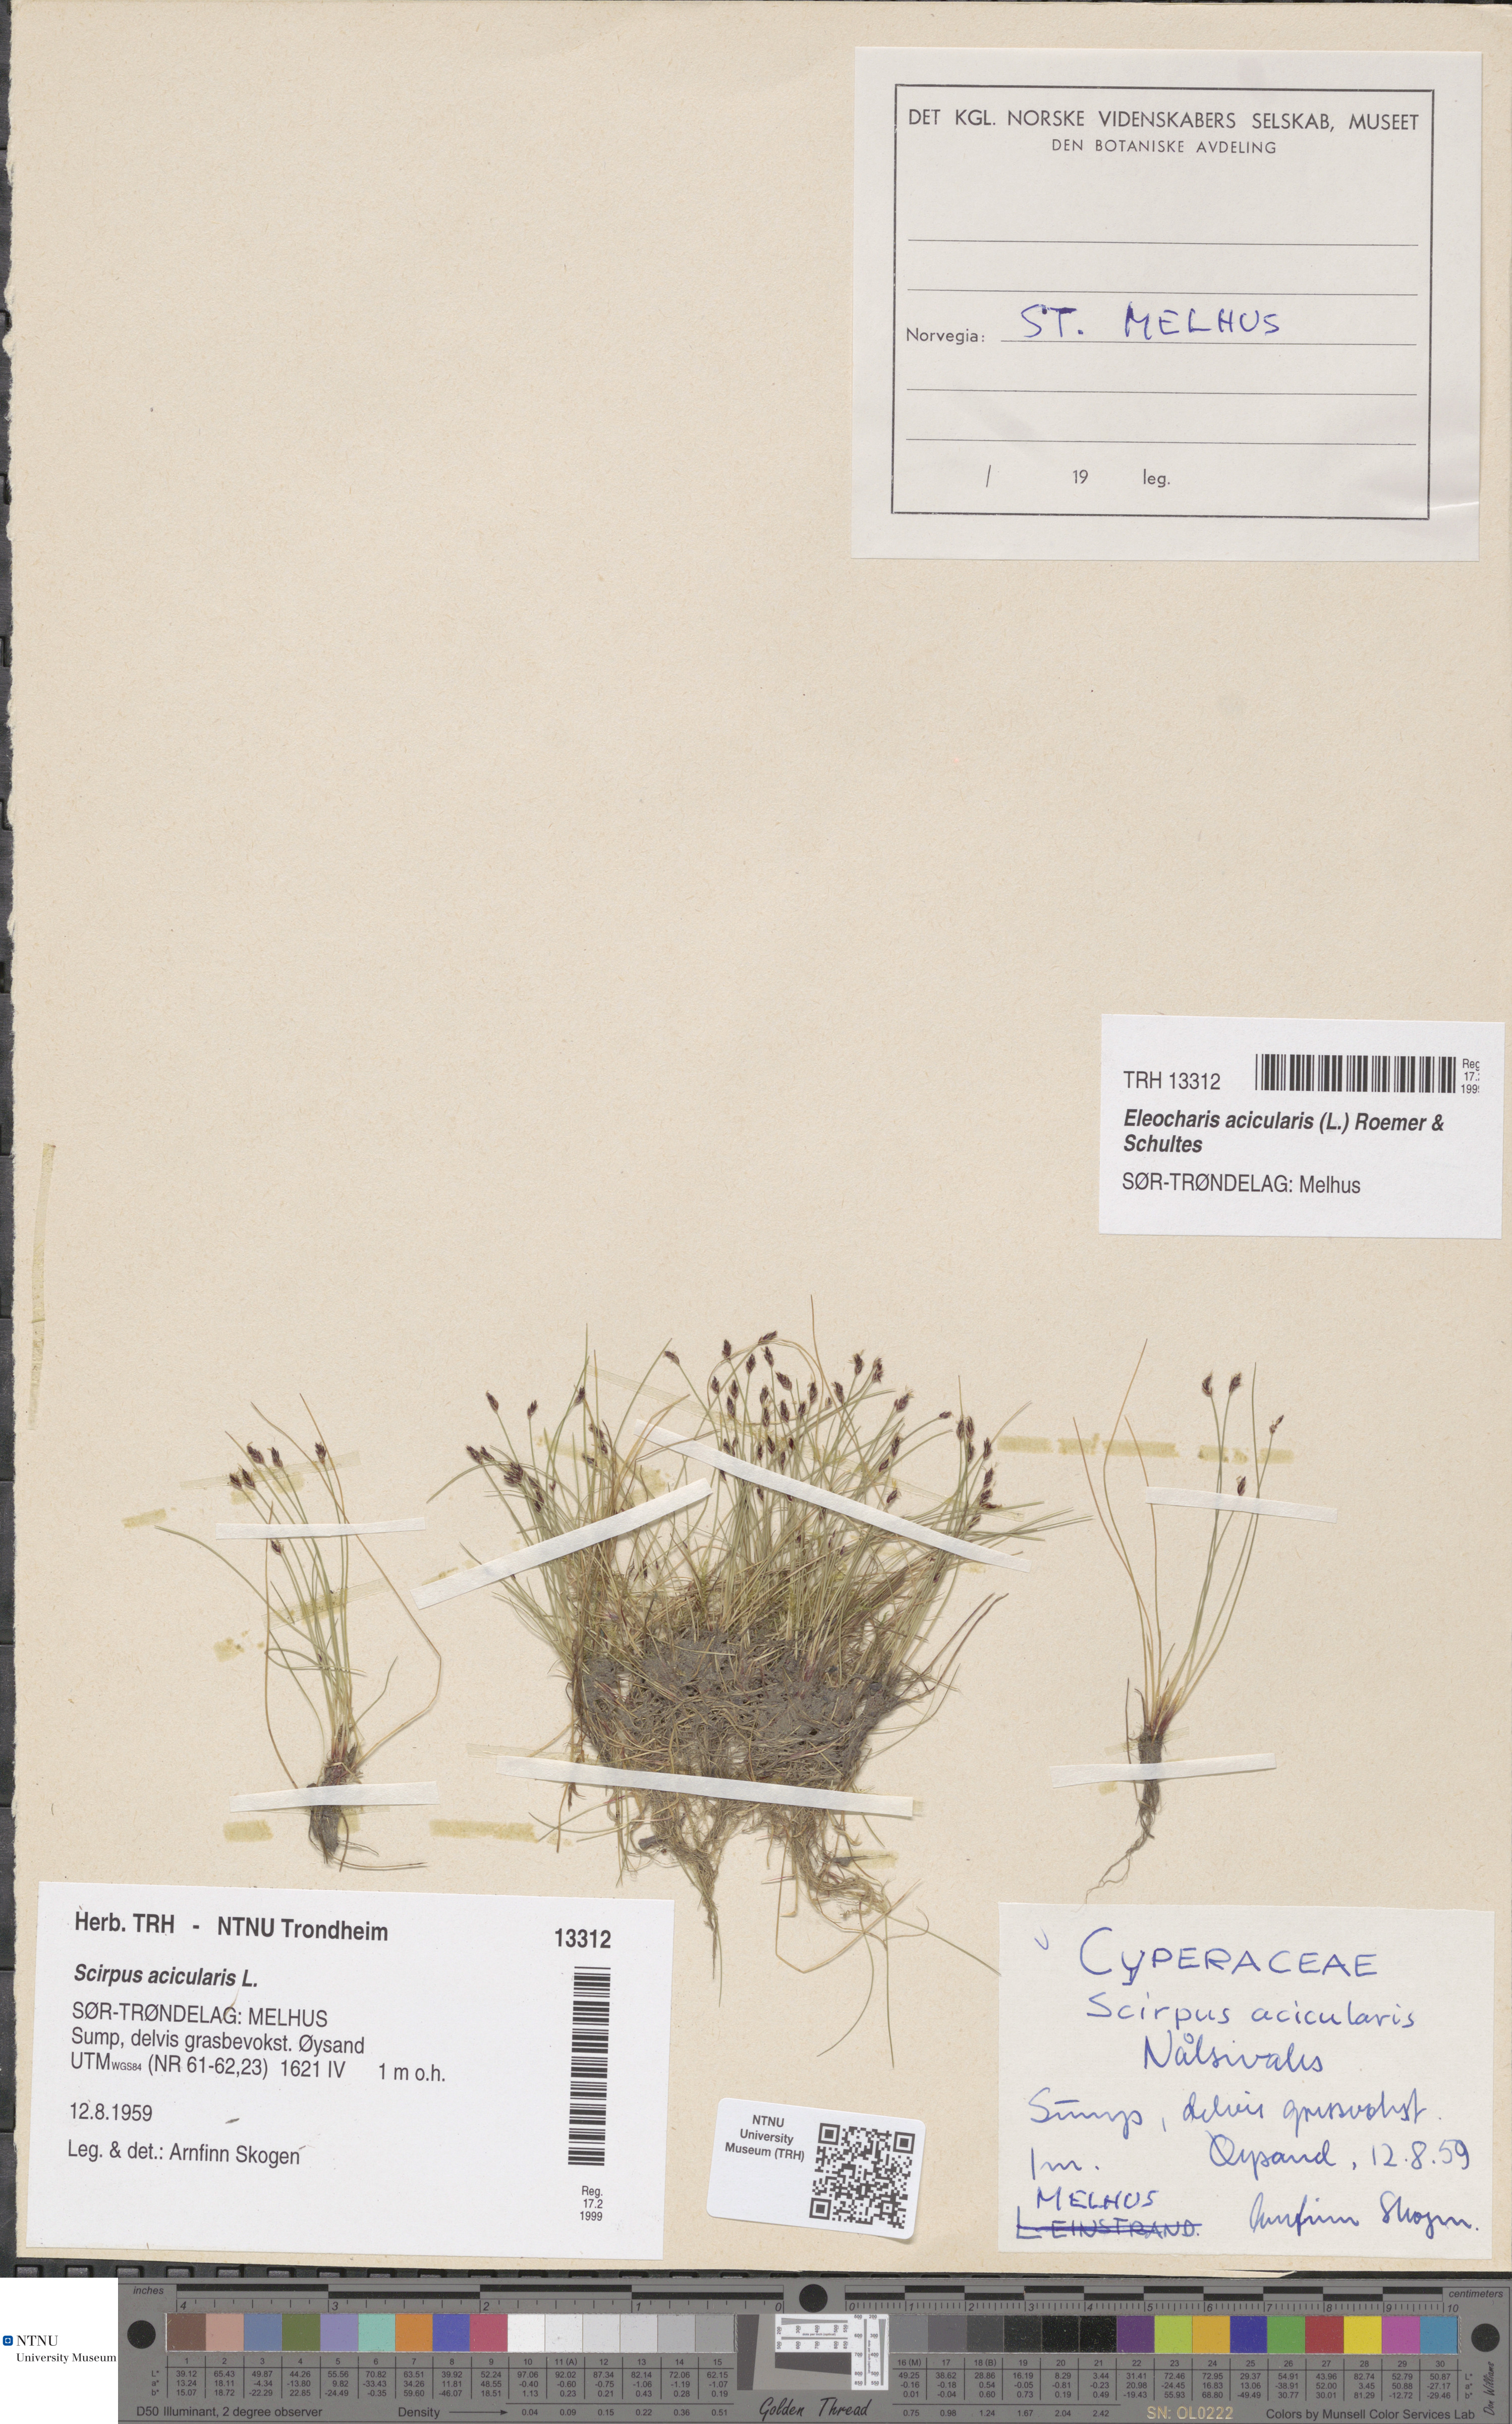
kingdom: Plantae
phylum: Tracheophyta
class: Liliopsida
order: Poales
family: Cyperaceae
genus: Eleocharis
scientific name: Eleocharis acicularis
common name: Needle spike-rush
